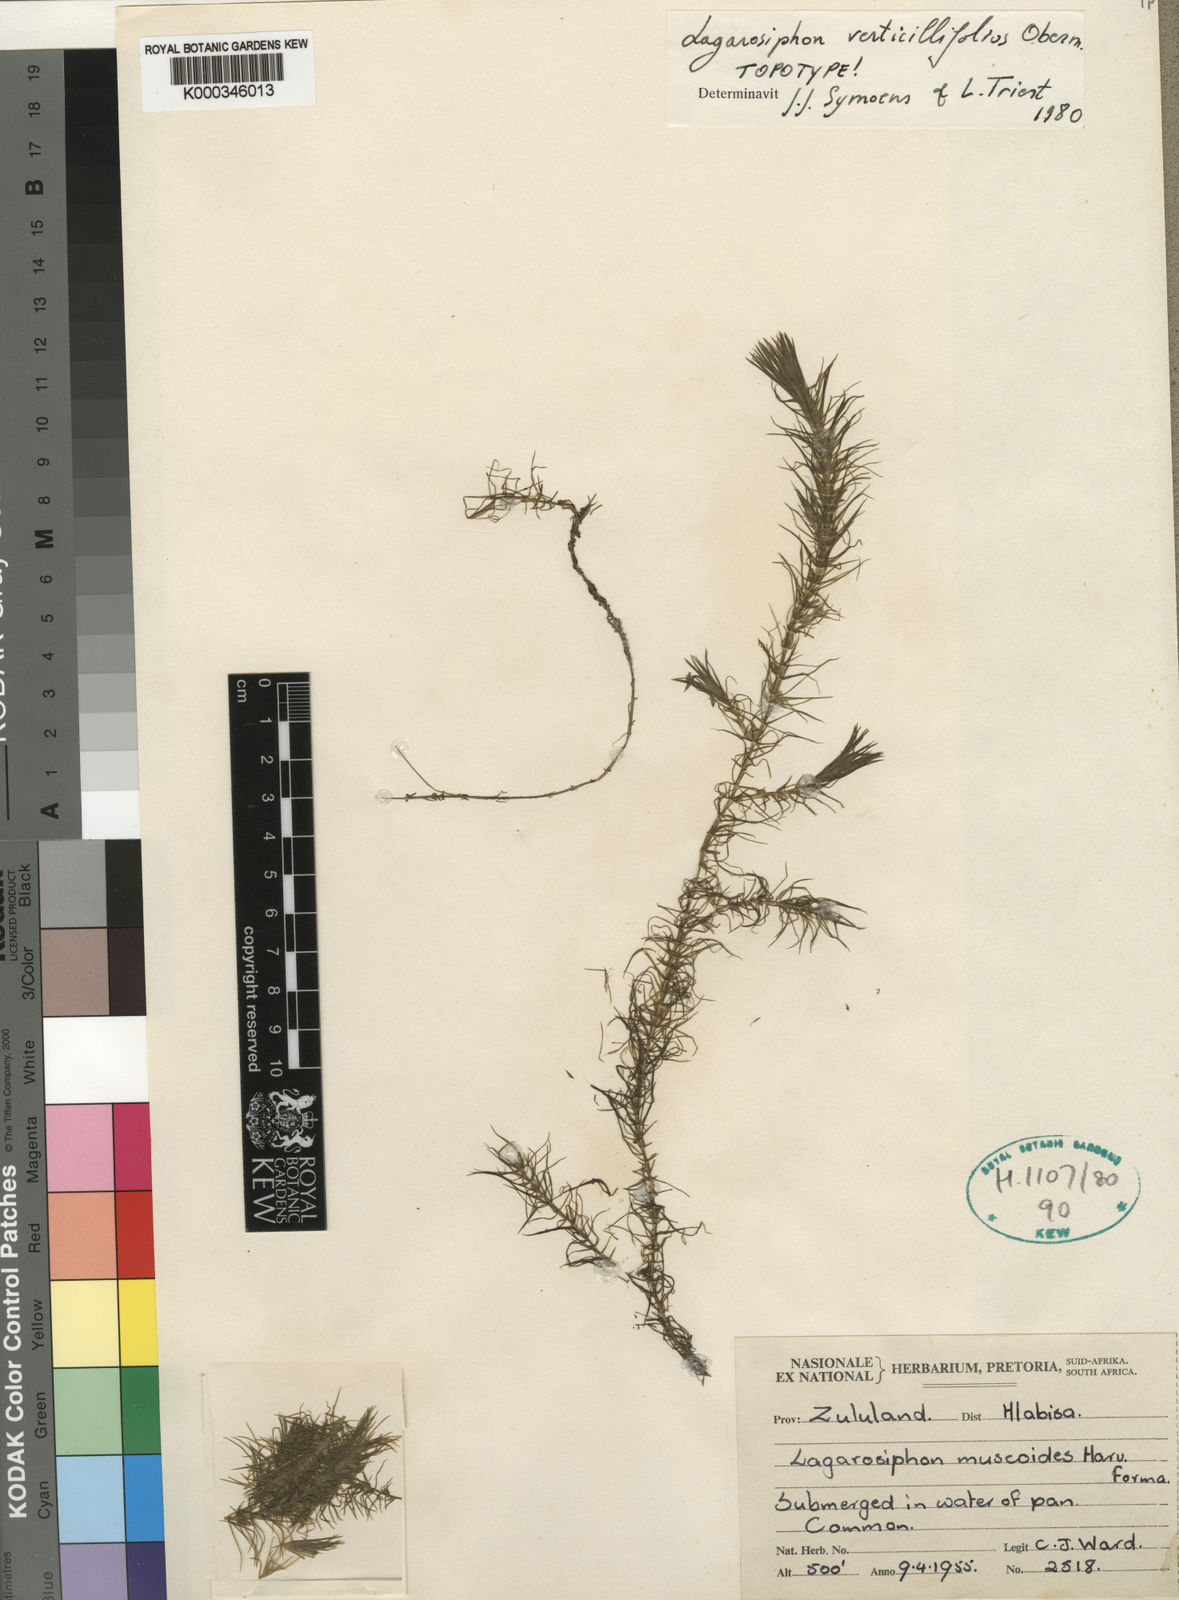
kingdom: Plantae
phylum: Tracheophyta
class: Liliopsida
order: Alismatales
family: Hydrocharitaceae
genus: Lagarosiphon
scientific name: Lagarosiphon verticillifolius
